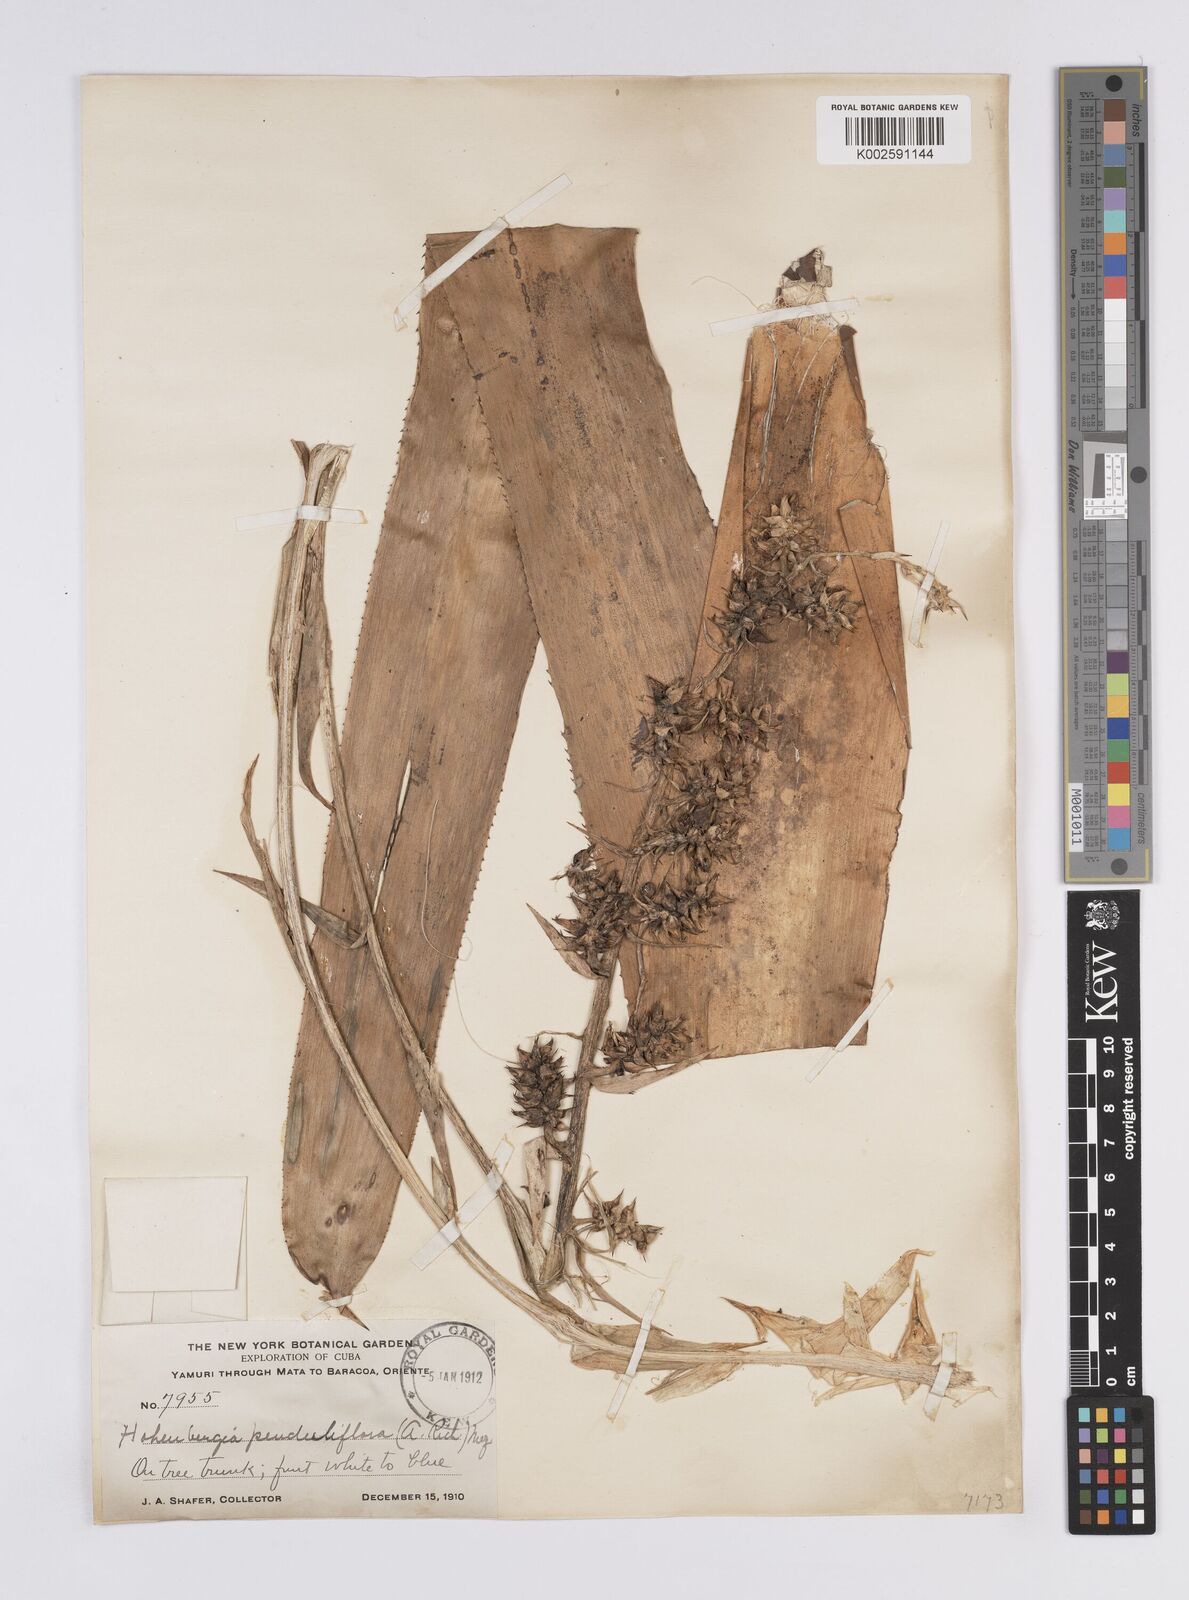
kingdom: Plantae
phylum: Tracheophyta
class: Liliopsida
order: Poales
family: Bromeliaceae
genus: Wittmackia
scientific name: Wittmackia penduliflora
